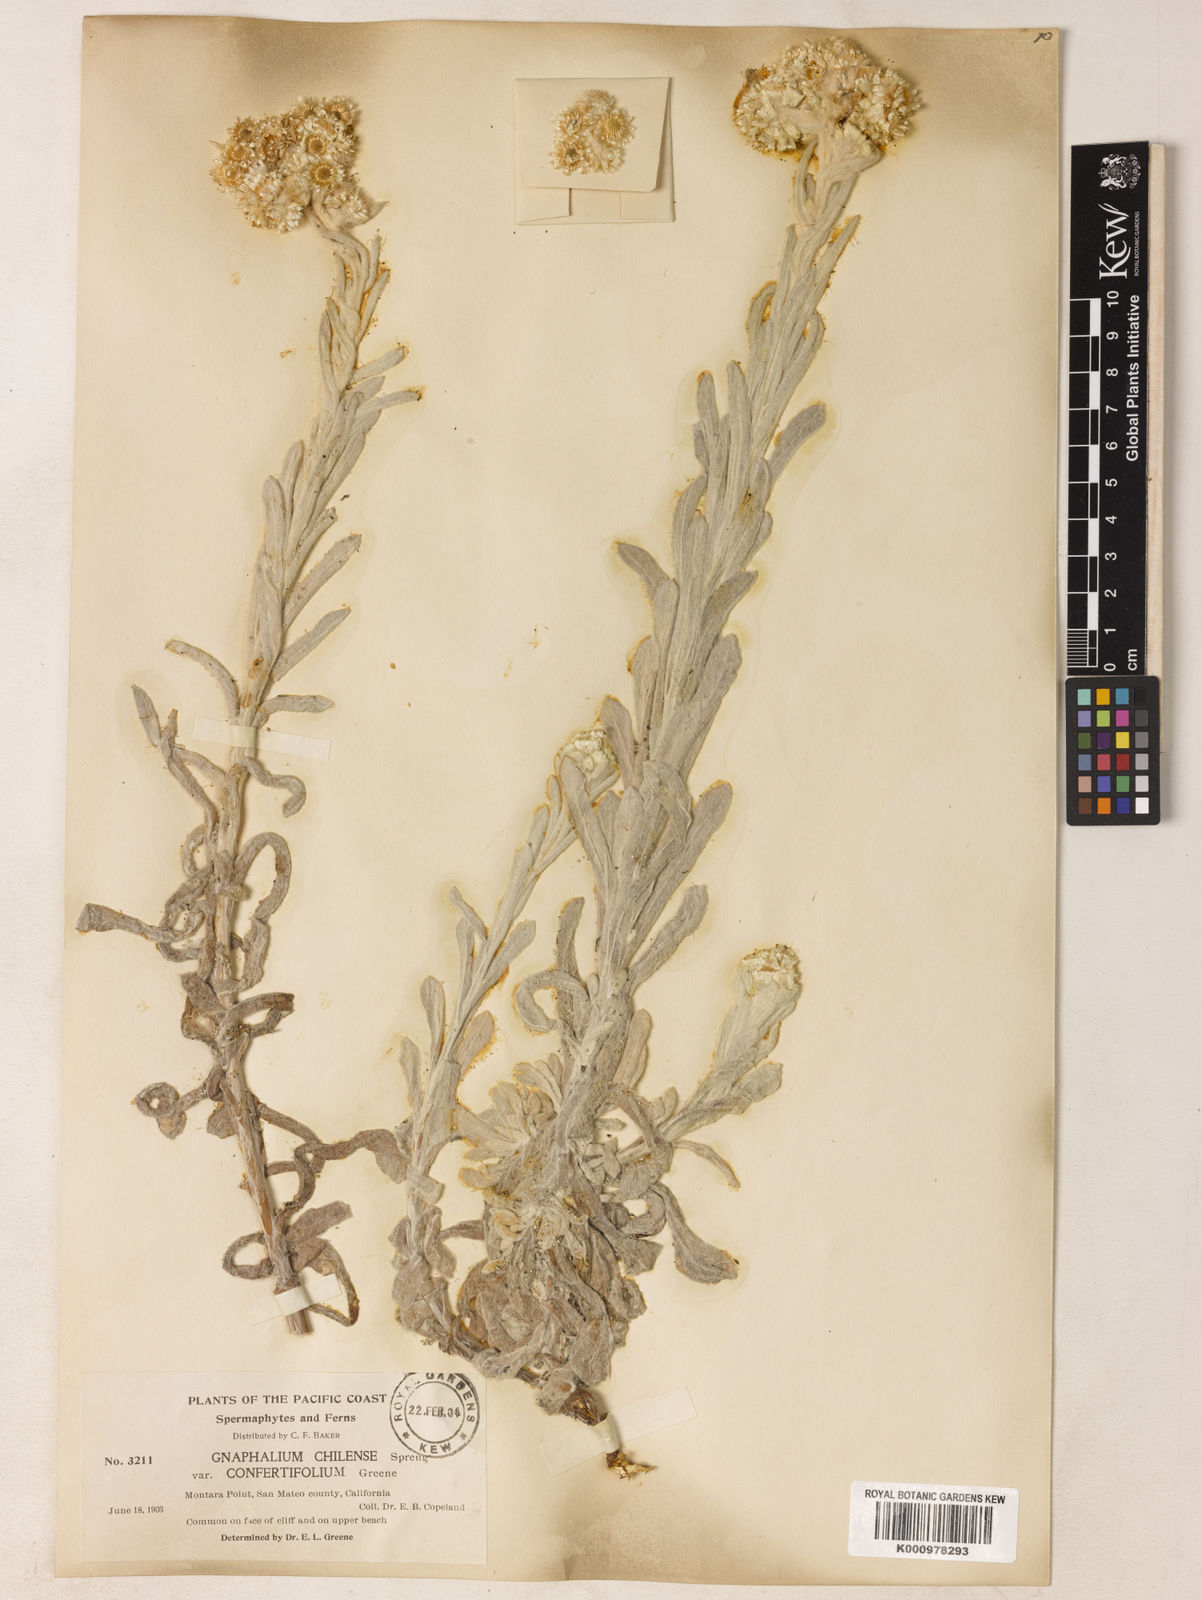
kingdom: Plantae
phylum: Tracheophyta
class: Magnoliopsida
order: Asterales
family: Asteraceae
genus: Gnaphalium
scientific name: Gnaphalium
